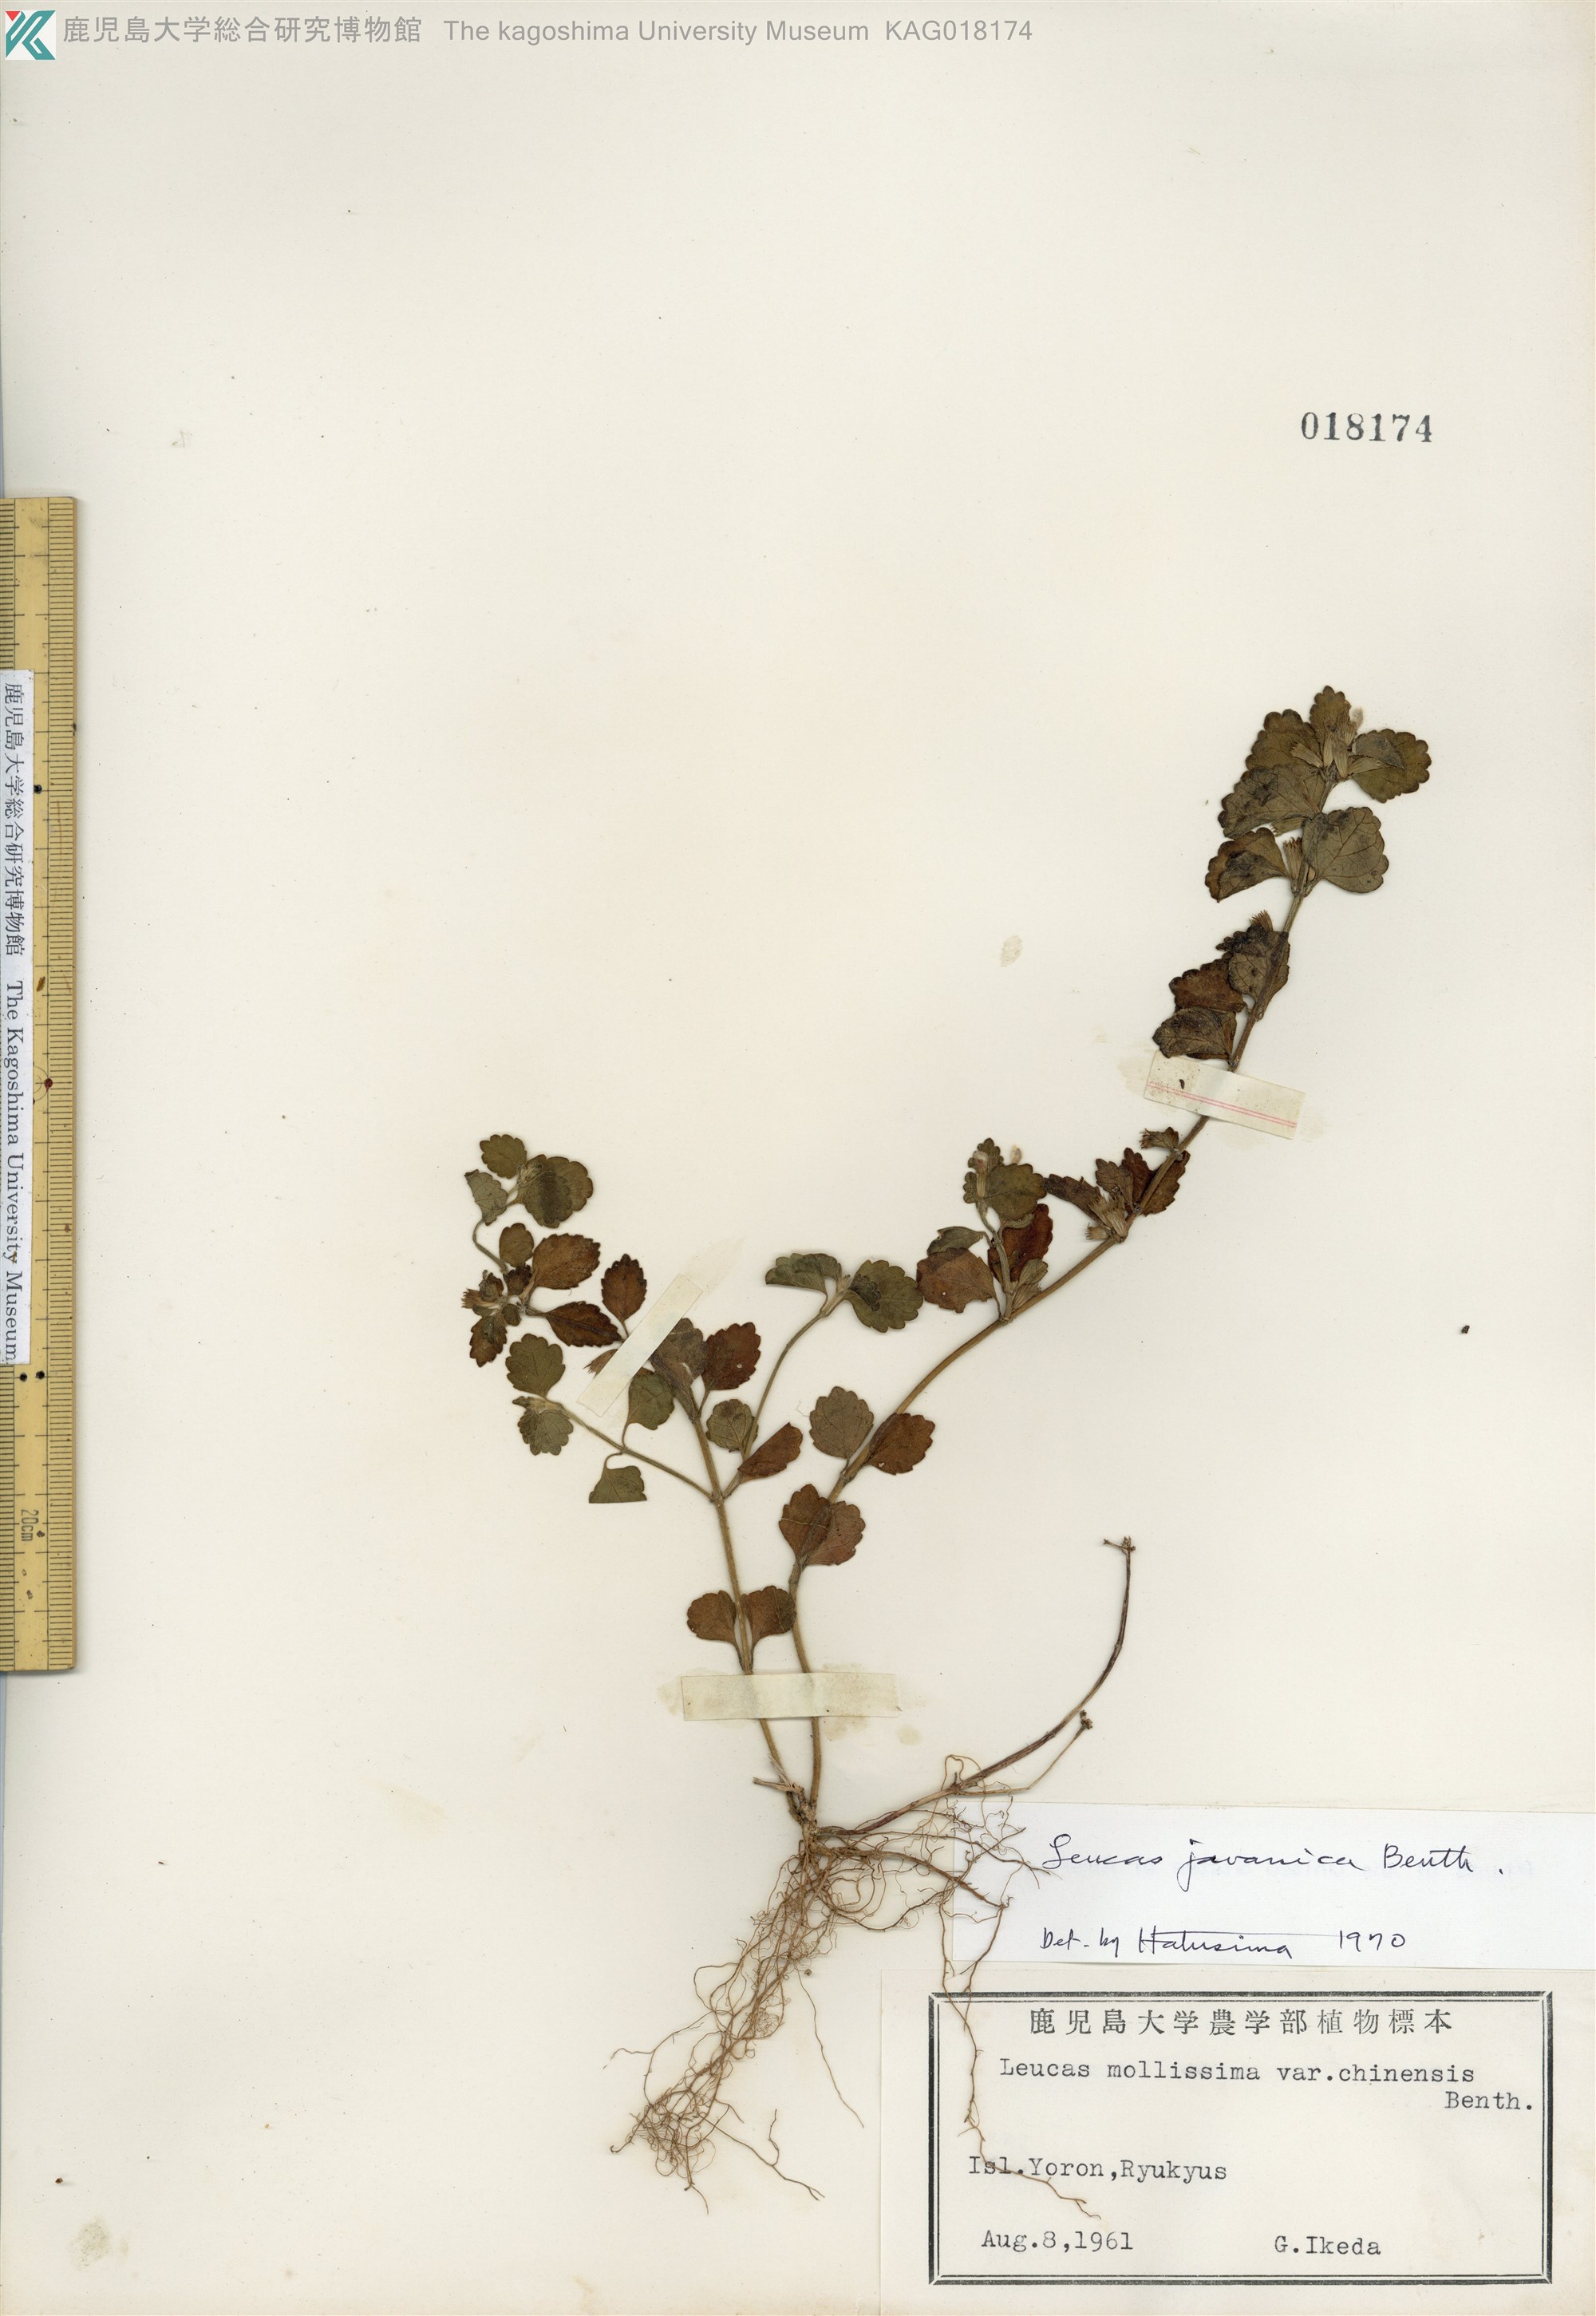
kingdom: Plantae
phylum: Tracheophyta
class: Magnoliopsida
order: Lamiales
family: Lamiaceae
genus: Leucas
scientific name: Leucas chinensis
